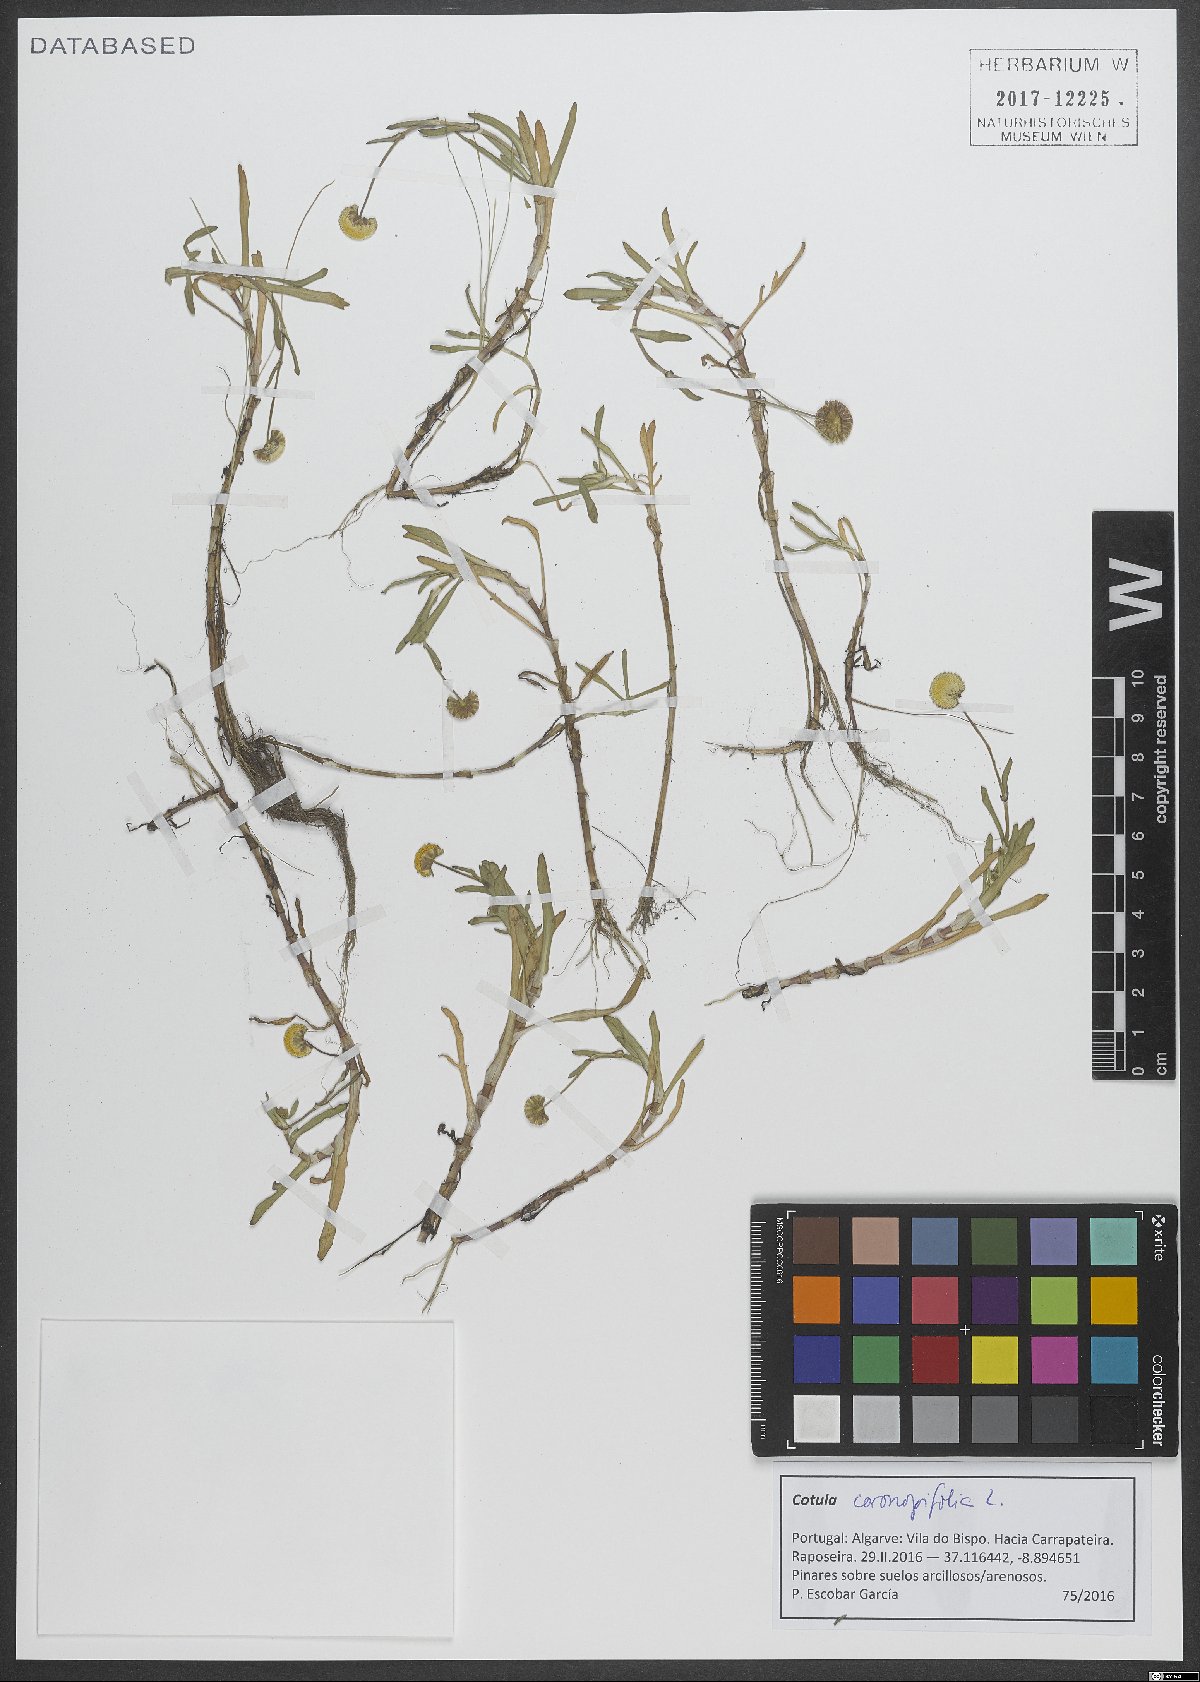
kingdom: Plantae
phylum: Tracheophyta
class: Magnoliopsida
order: Asterales
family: Asteraceae
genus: Cotula
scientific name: Cotula coronopifolia
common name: Buttonweed
